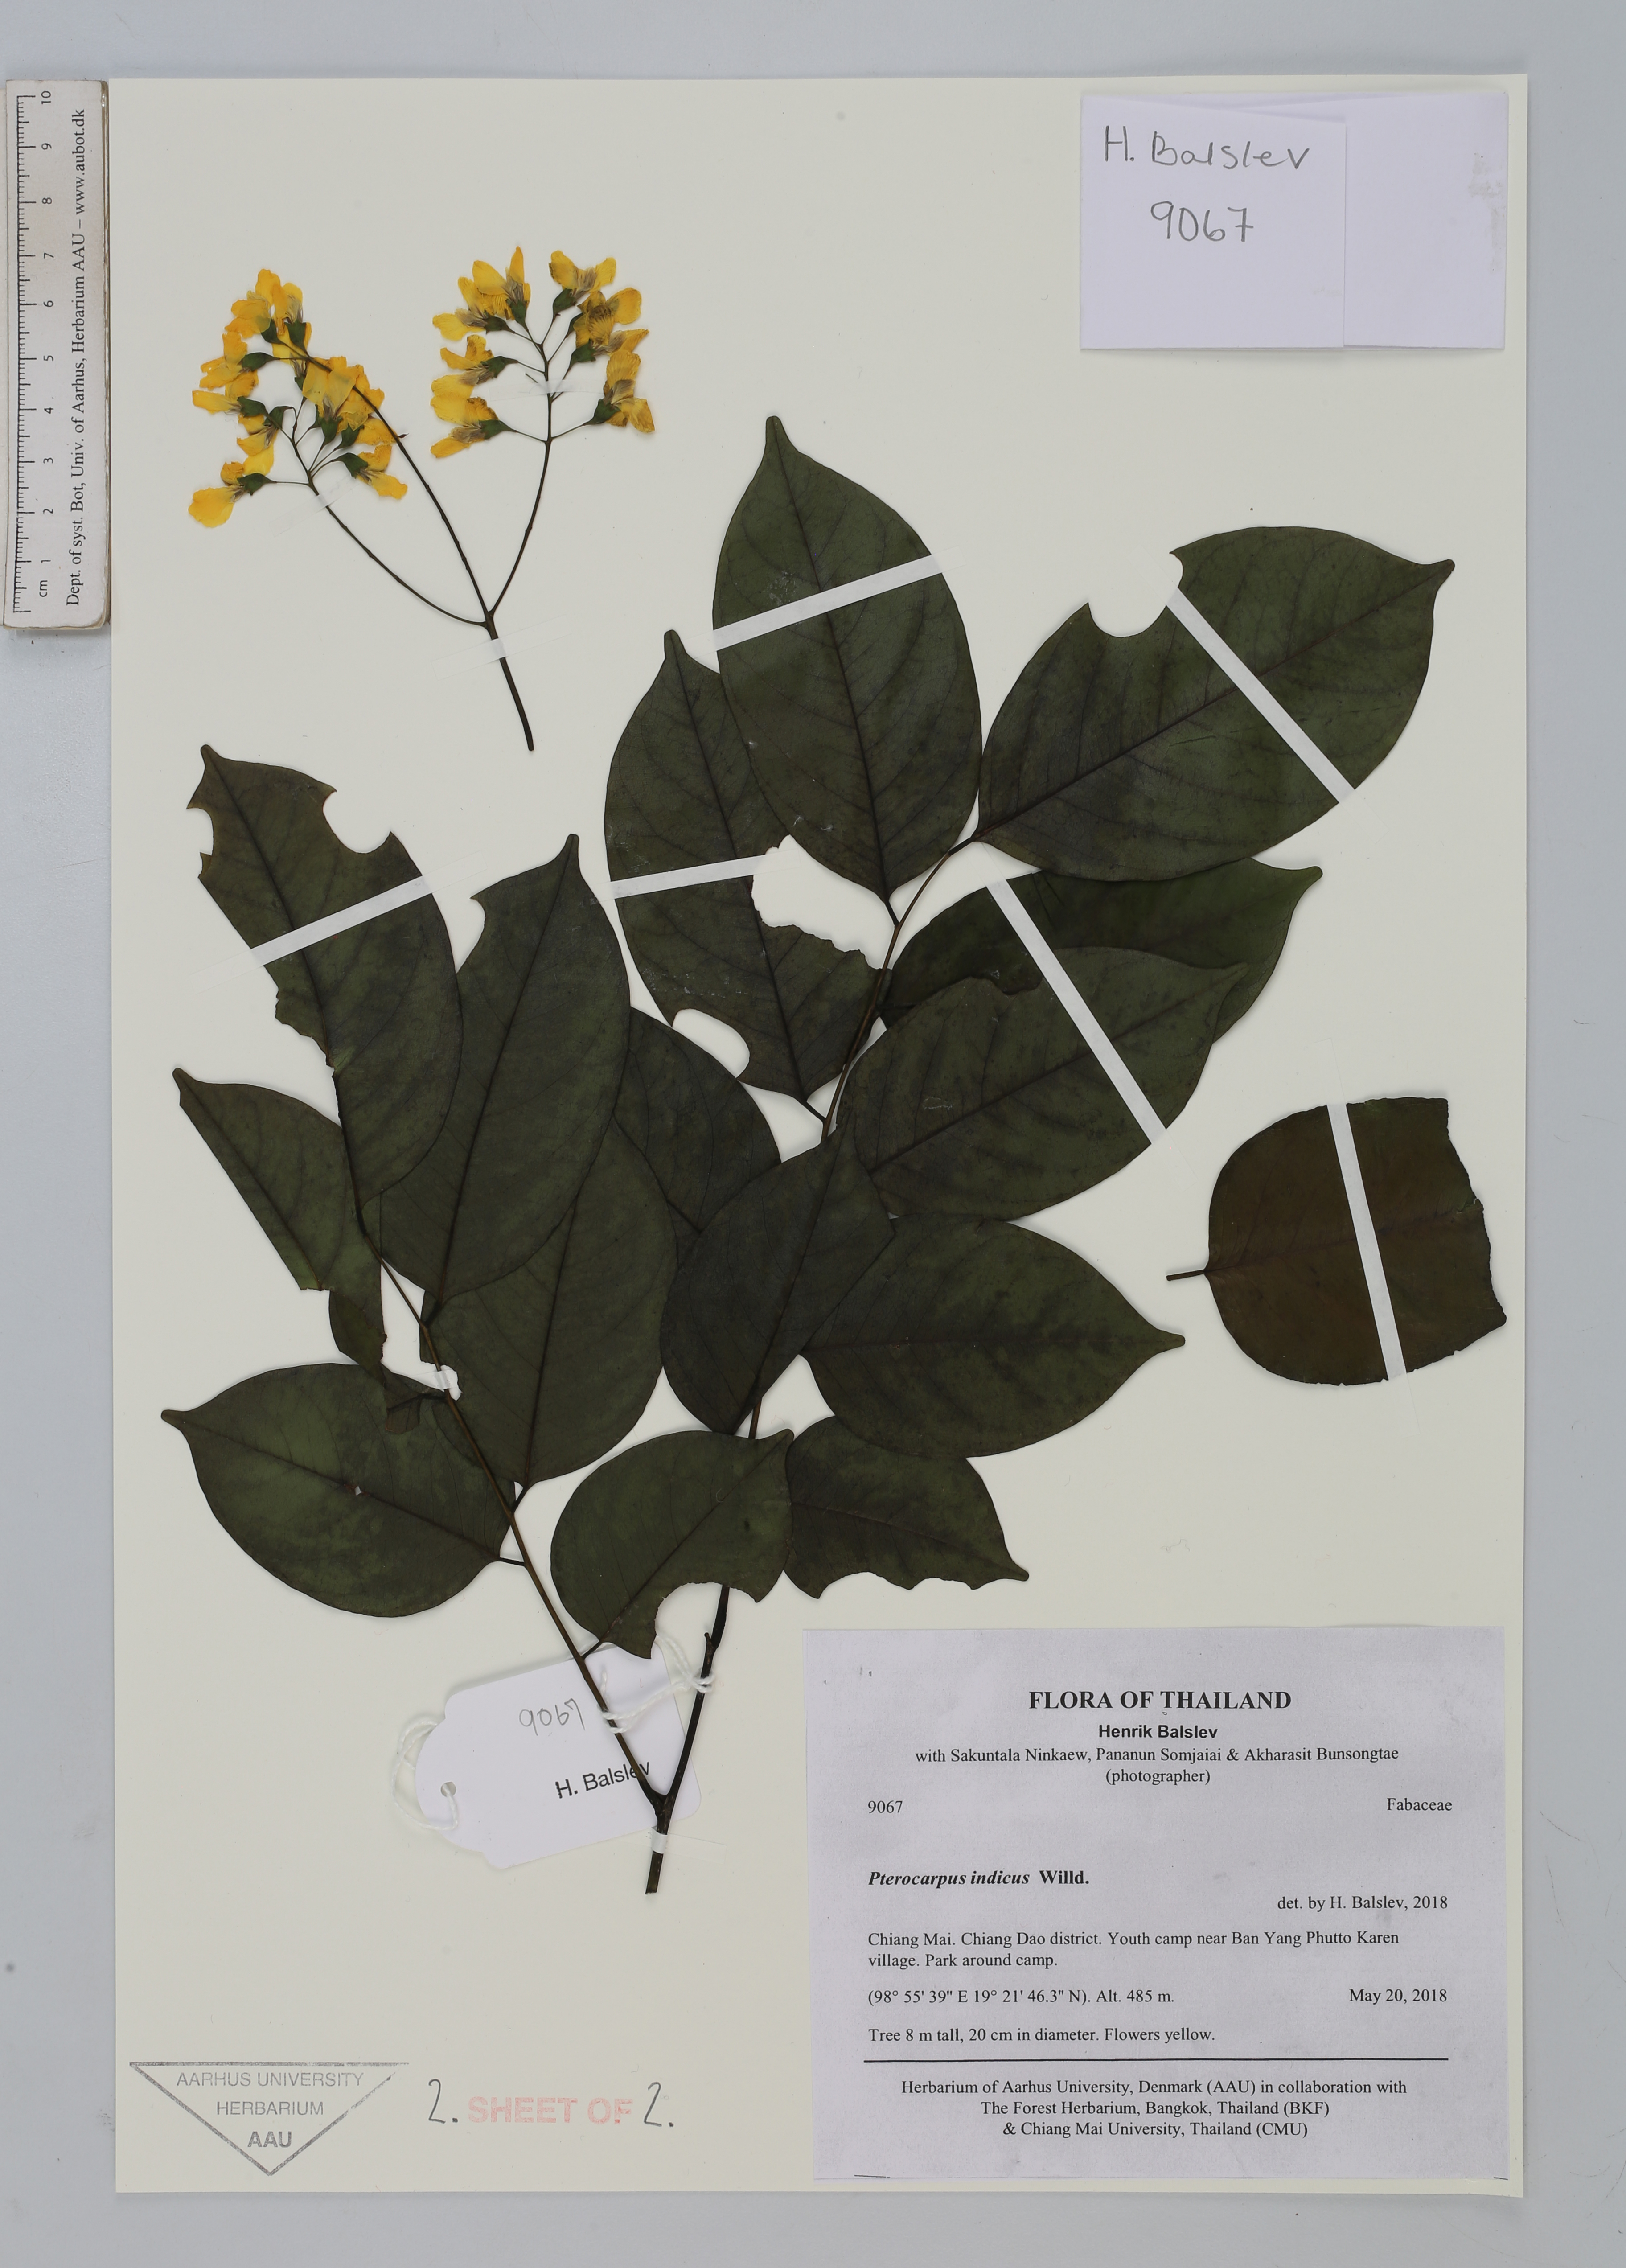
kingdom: Plantae
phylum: Tracheophyta
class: Magnoliopsida
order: Fabales
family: Fabaceae
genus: Pterocarpus
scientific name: Pterocarpus indicus
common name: Burmese rosewood
